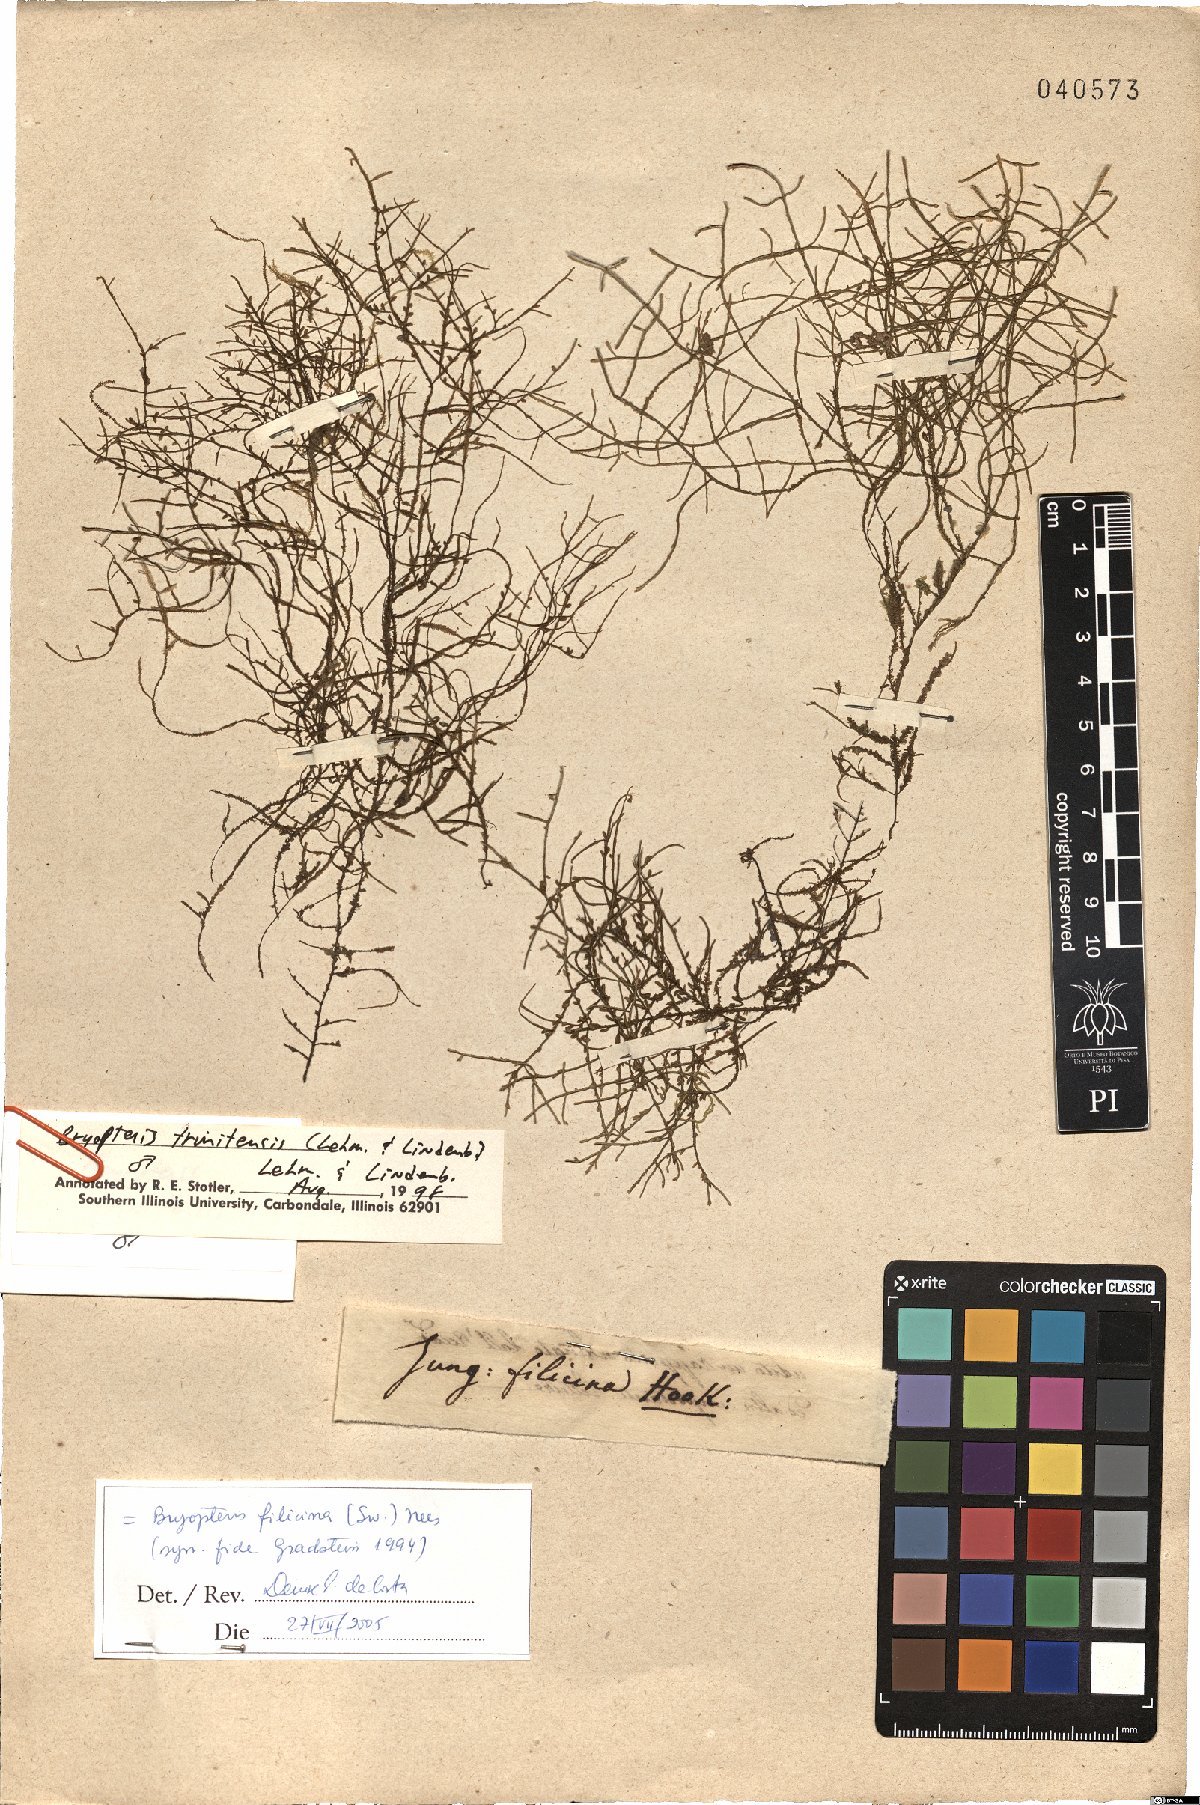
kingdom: Plantae
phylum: Marchantiophyta
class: Jungermanniopsida
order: Porellales
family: Lejeuneaceae
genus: Bryopteris
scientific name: Bryopteris filicina
